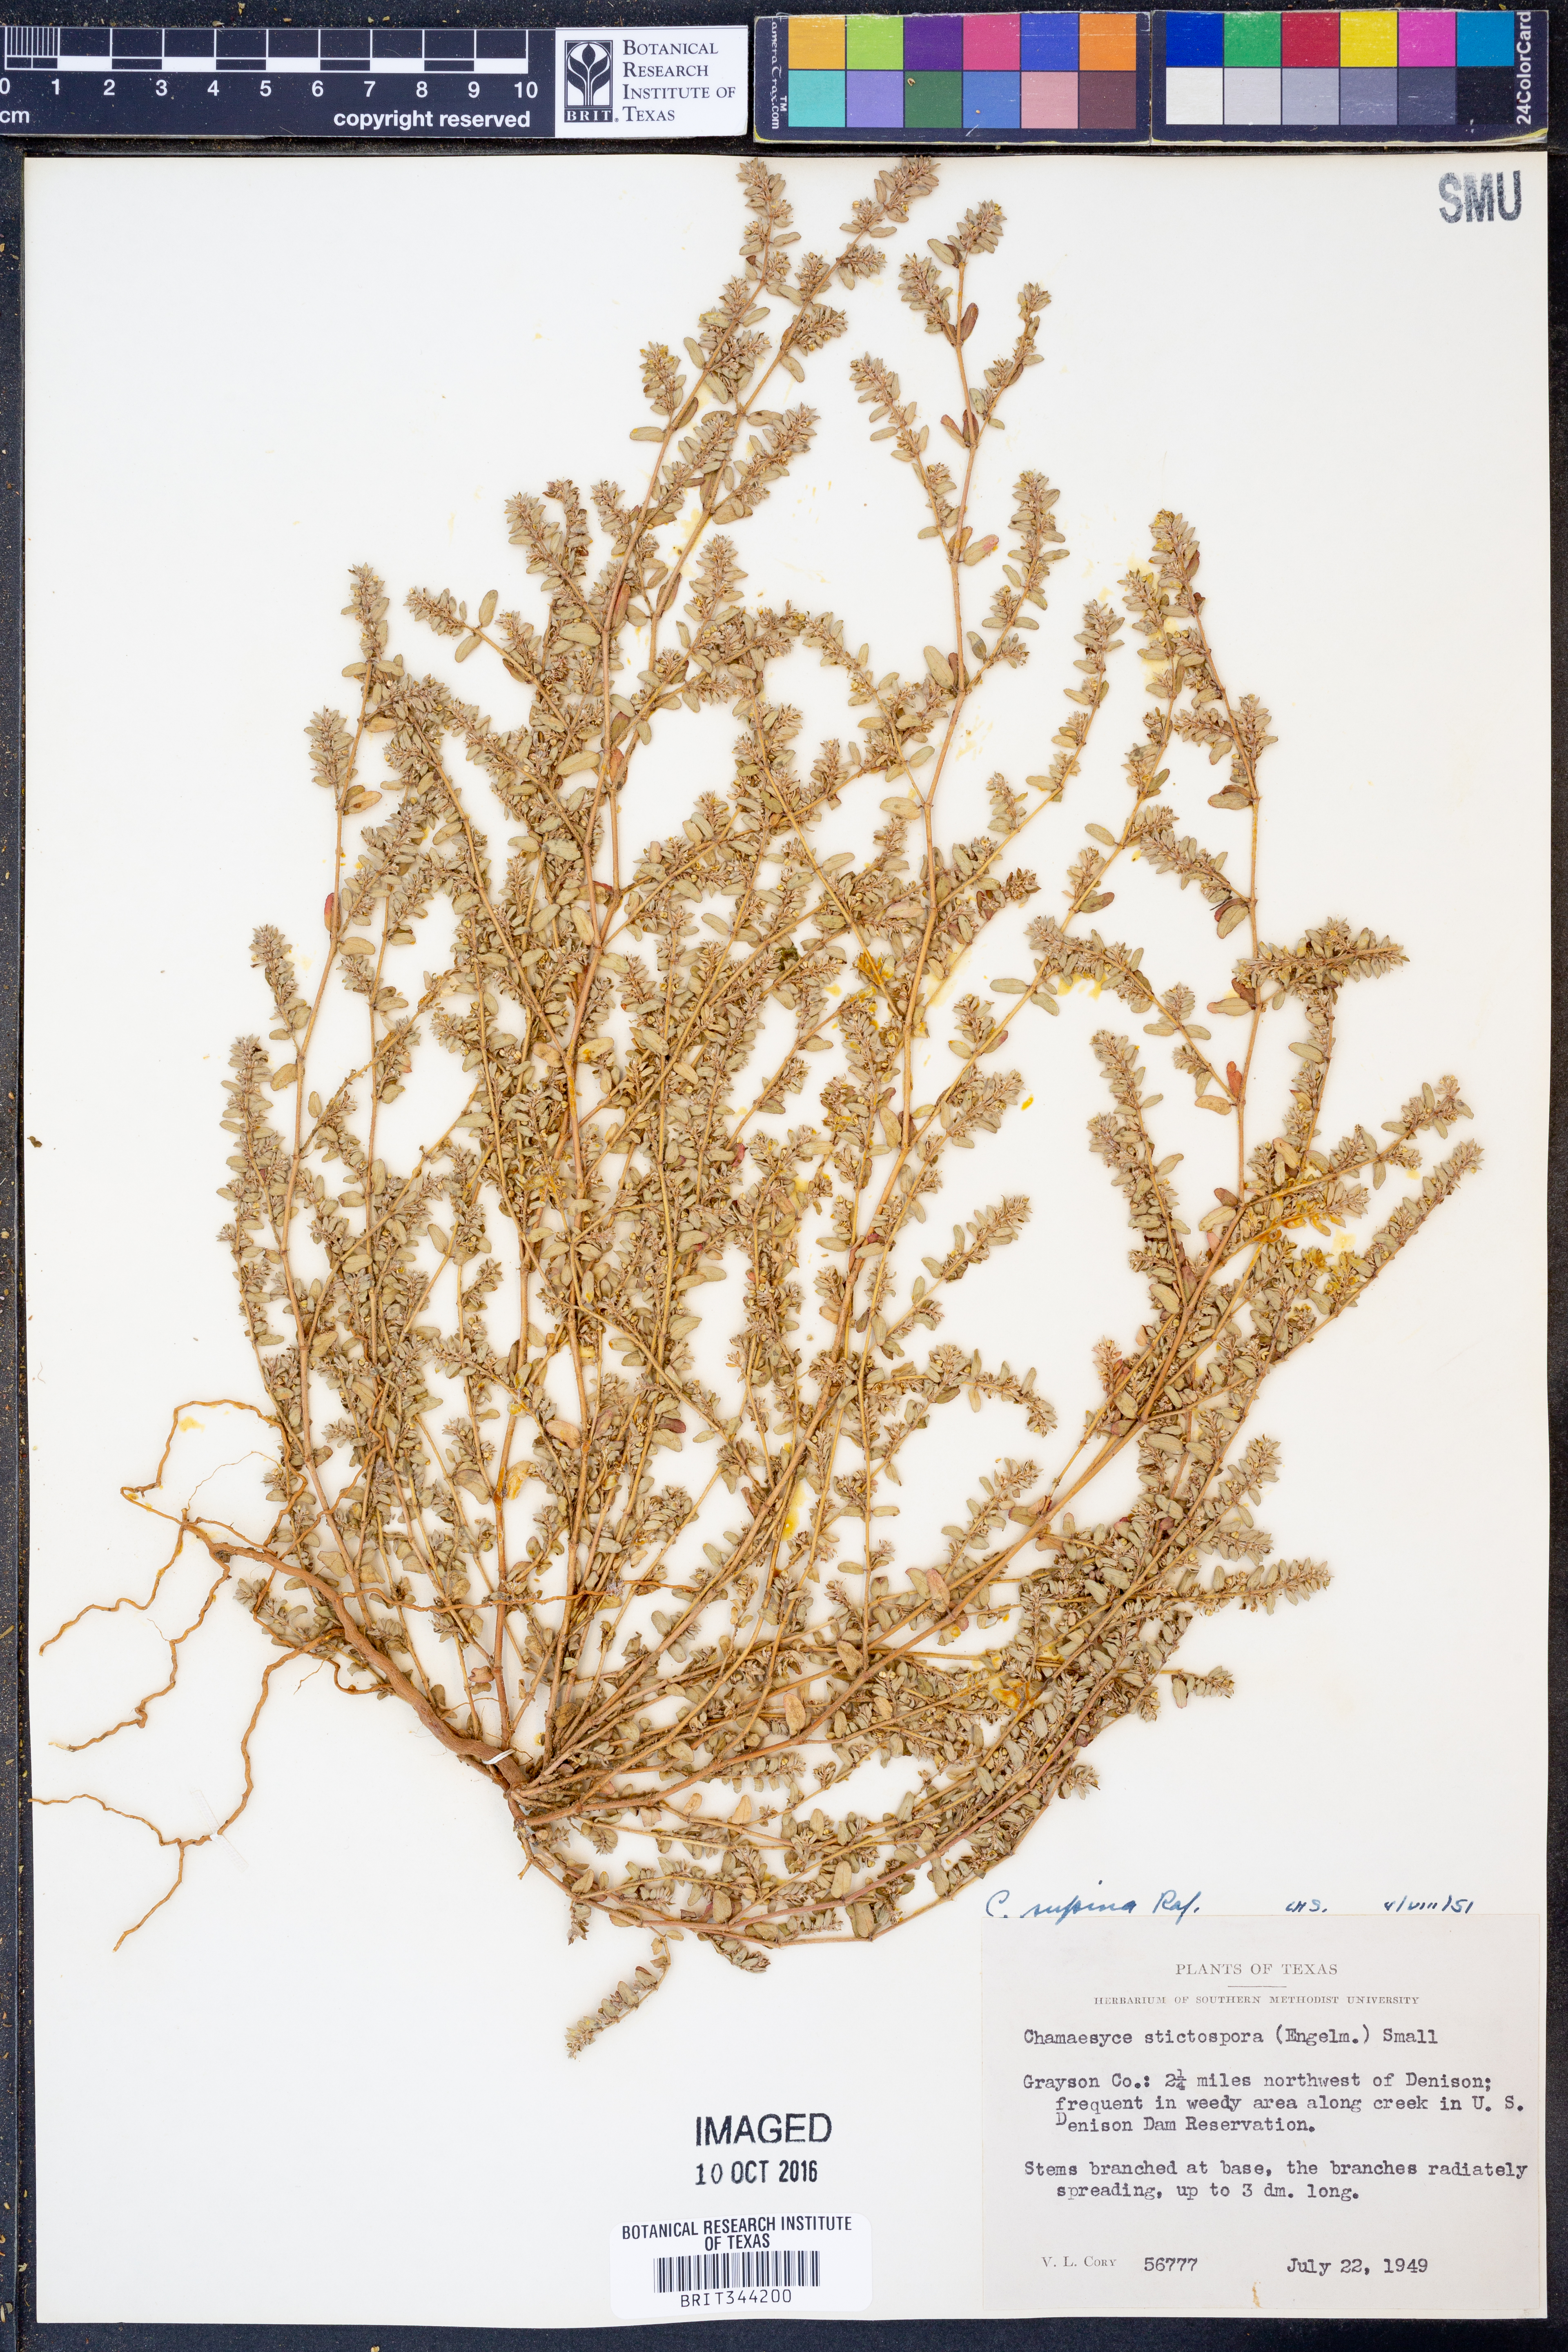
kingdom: Plantae
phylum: Tracheophyta
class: Magnoliopsida
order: Malpighiales
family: Euphorbiaceae
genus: Euphorbia
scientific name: Euphorbia maculata
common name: Spotted spurge
